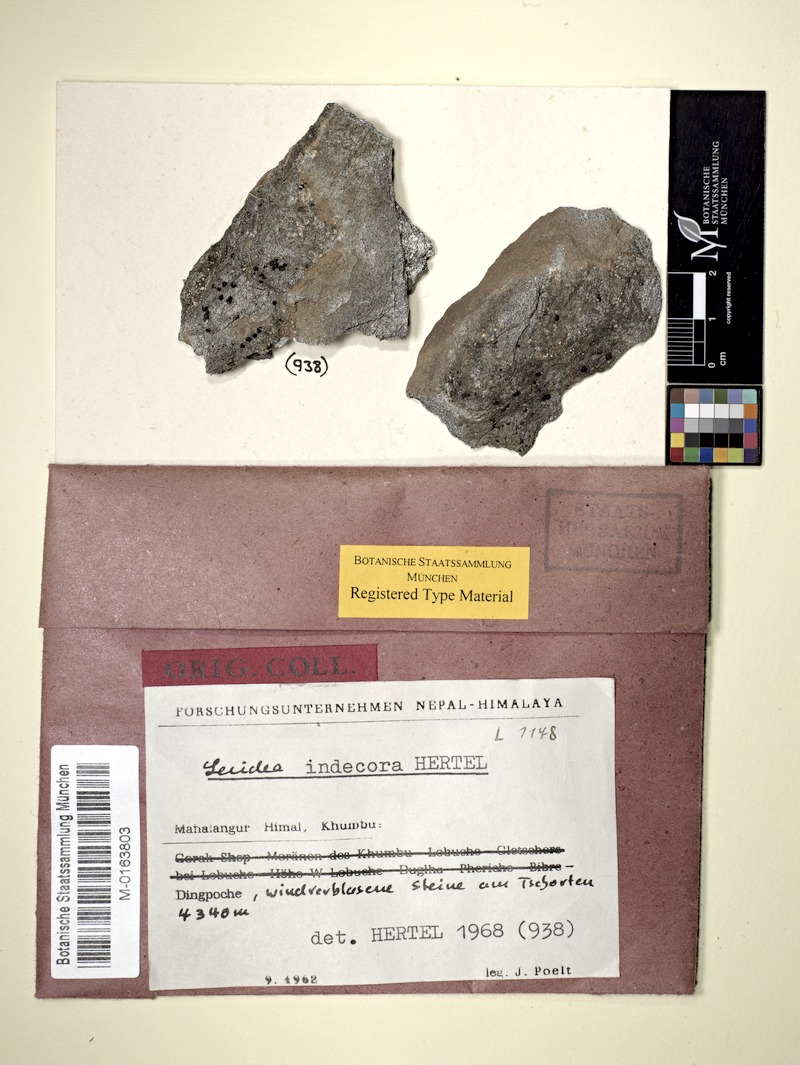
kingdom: Fungi
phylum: Ascomycota
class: Lecanoromycetes
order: Lecideales
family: Lecideaceae
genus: Lecidea
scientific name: Lecidea fuscoatra
